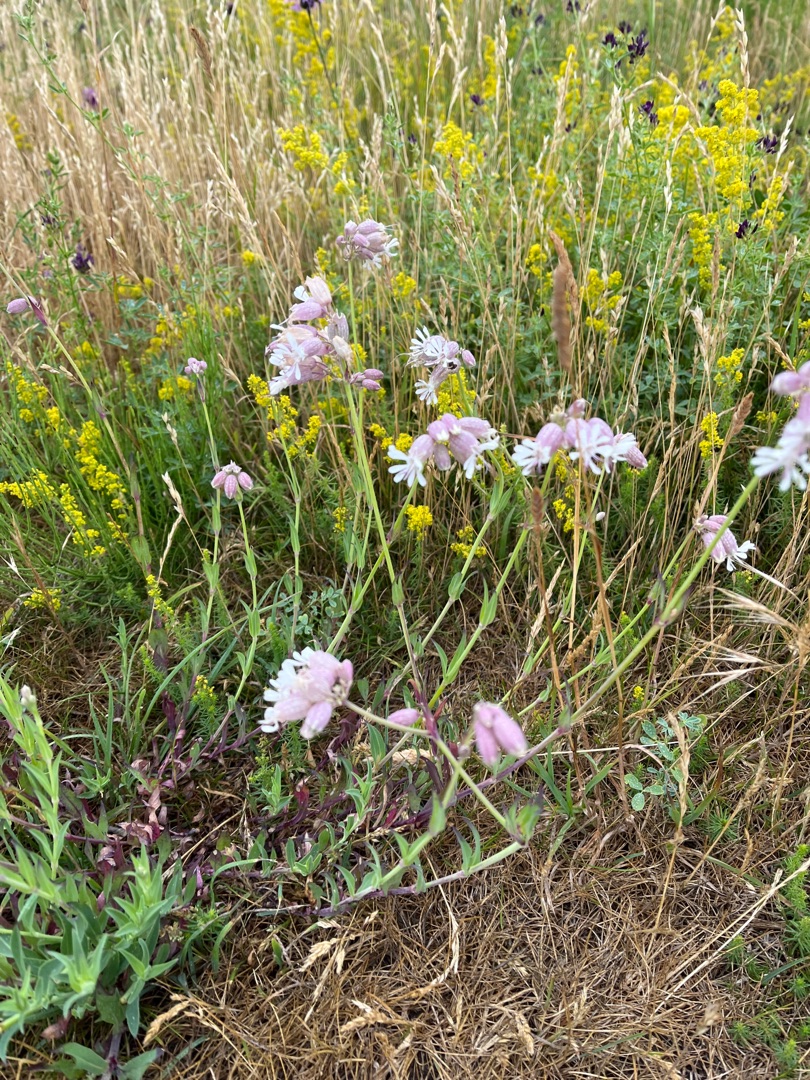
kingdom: Plantae
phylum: Tracheophyta
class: Magnoliopsida
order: Caryophyllales
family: Caryophyllaceae
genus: Silene
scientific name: Silene vulgaris
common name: Blæresmælde
